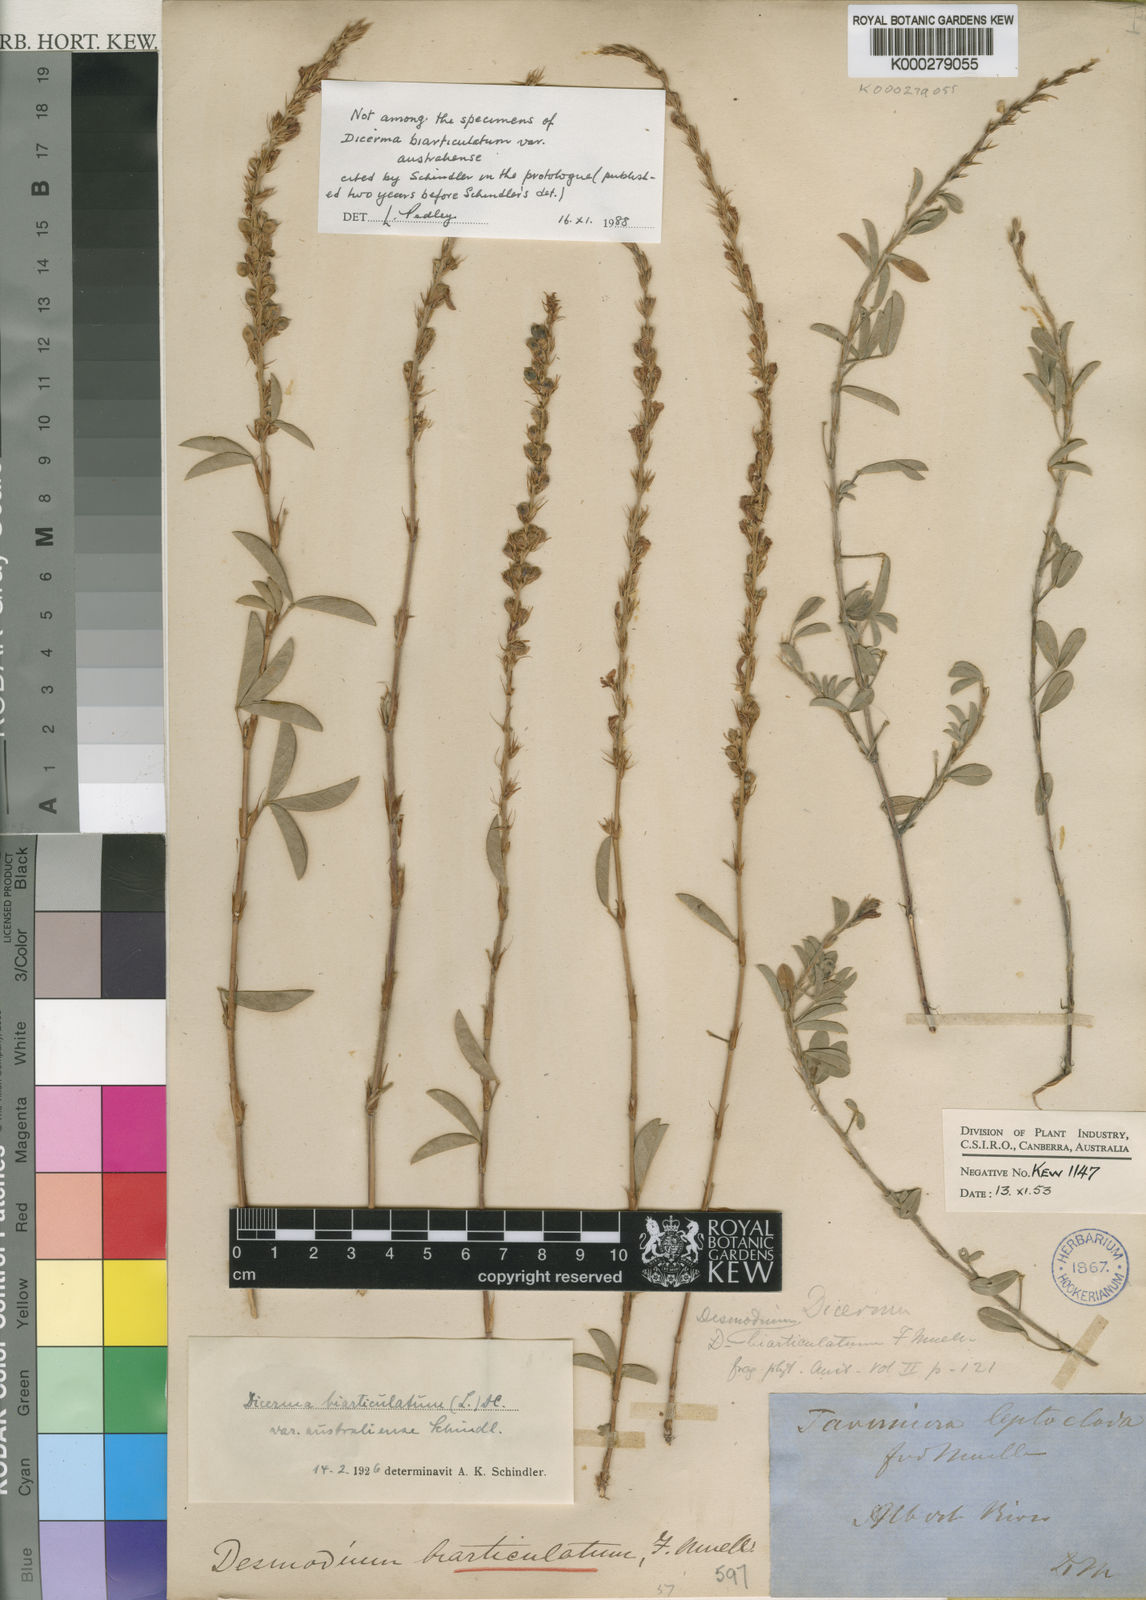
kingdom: Plantae
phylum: Tracheophyta
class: Magnoliopsida
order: Fabales
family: Fabaceae
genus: Aphyllodium
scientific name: Aphyllodium australiense
